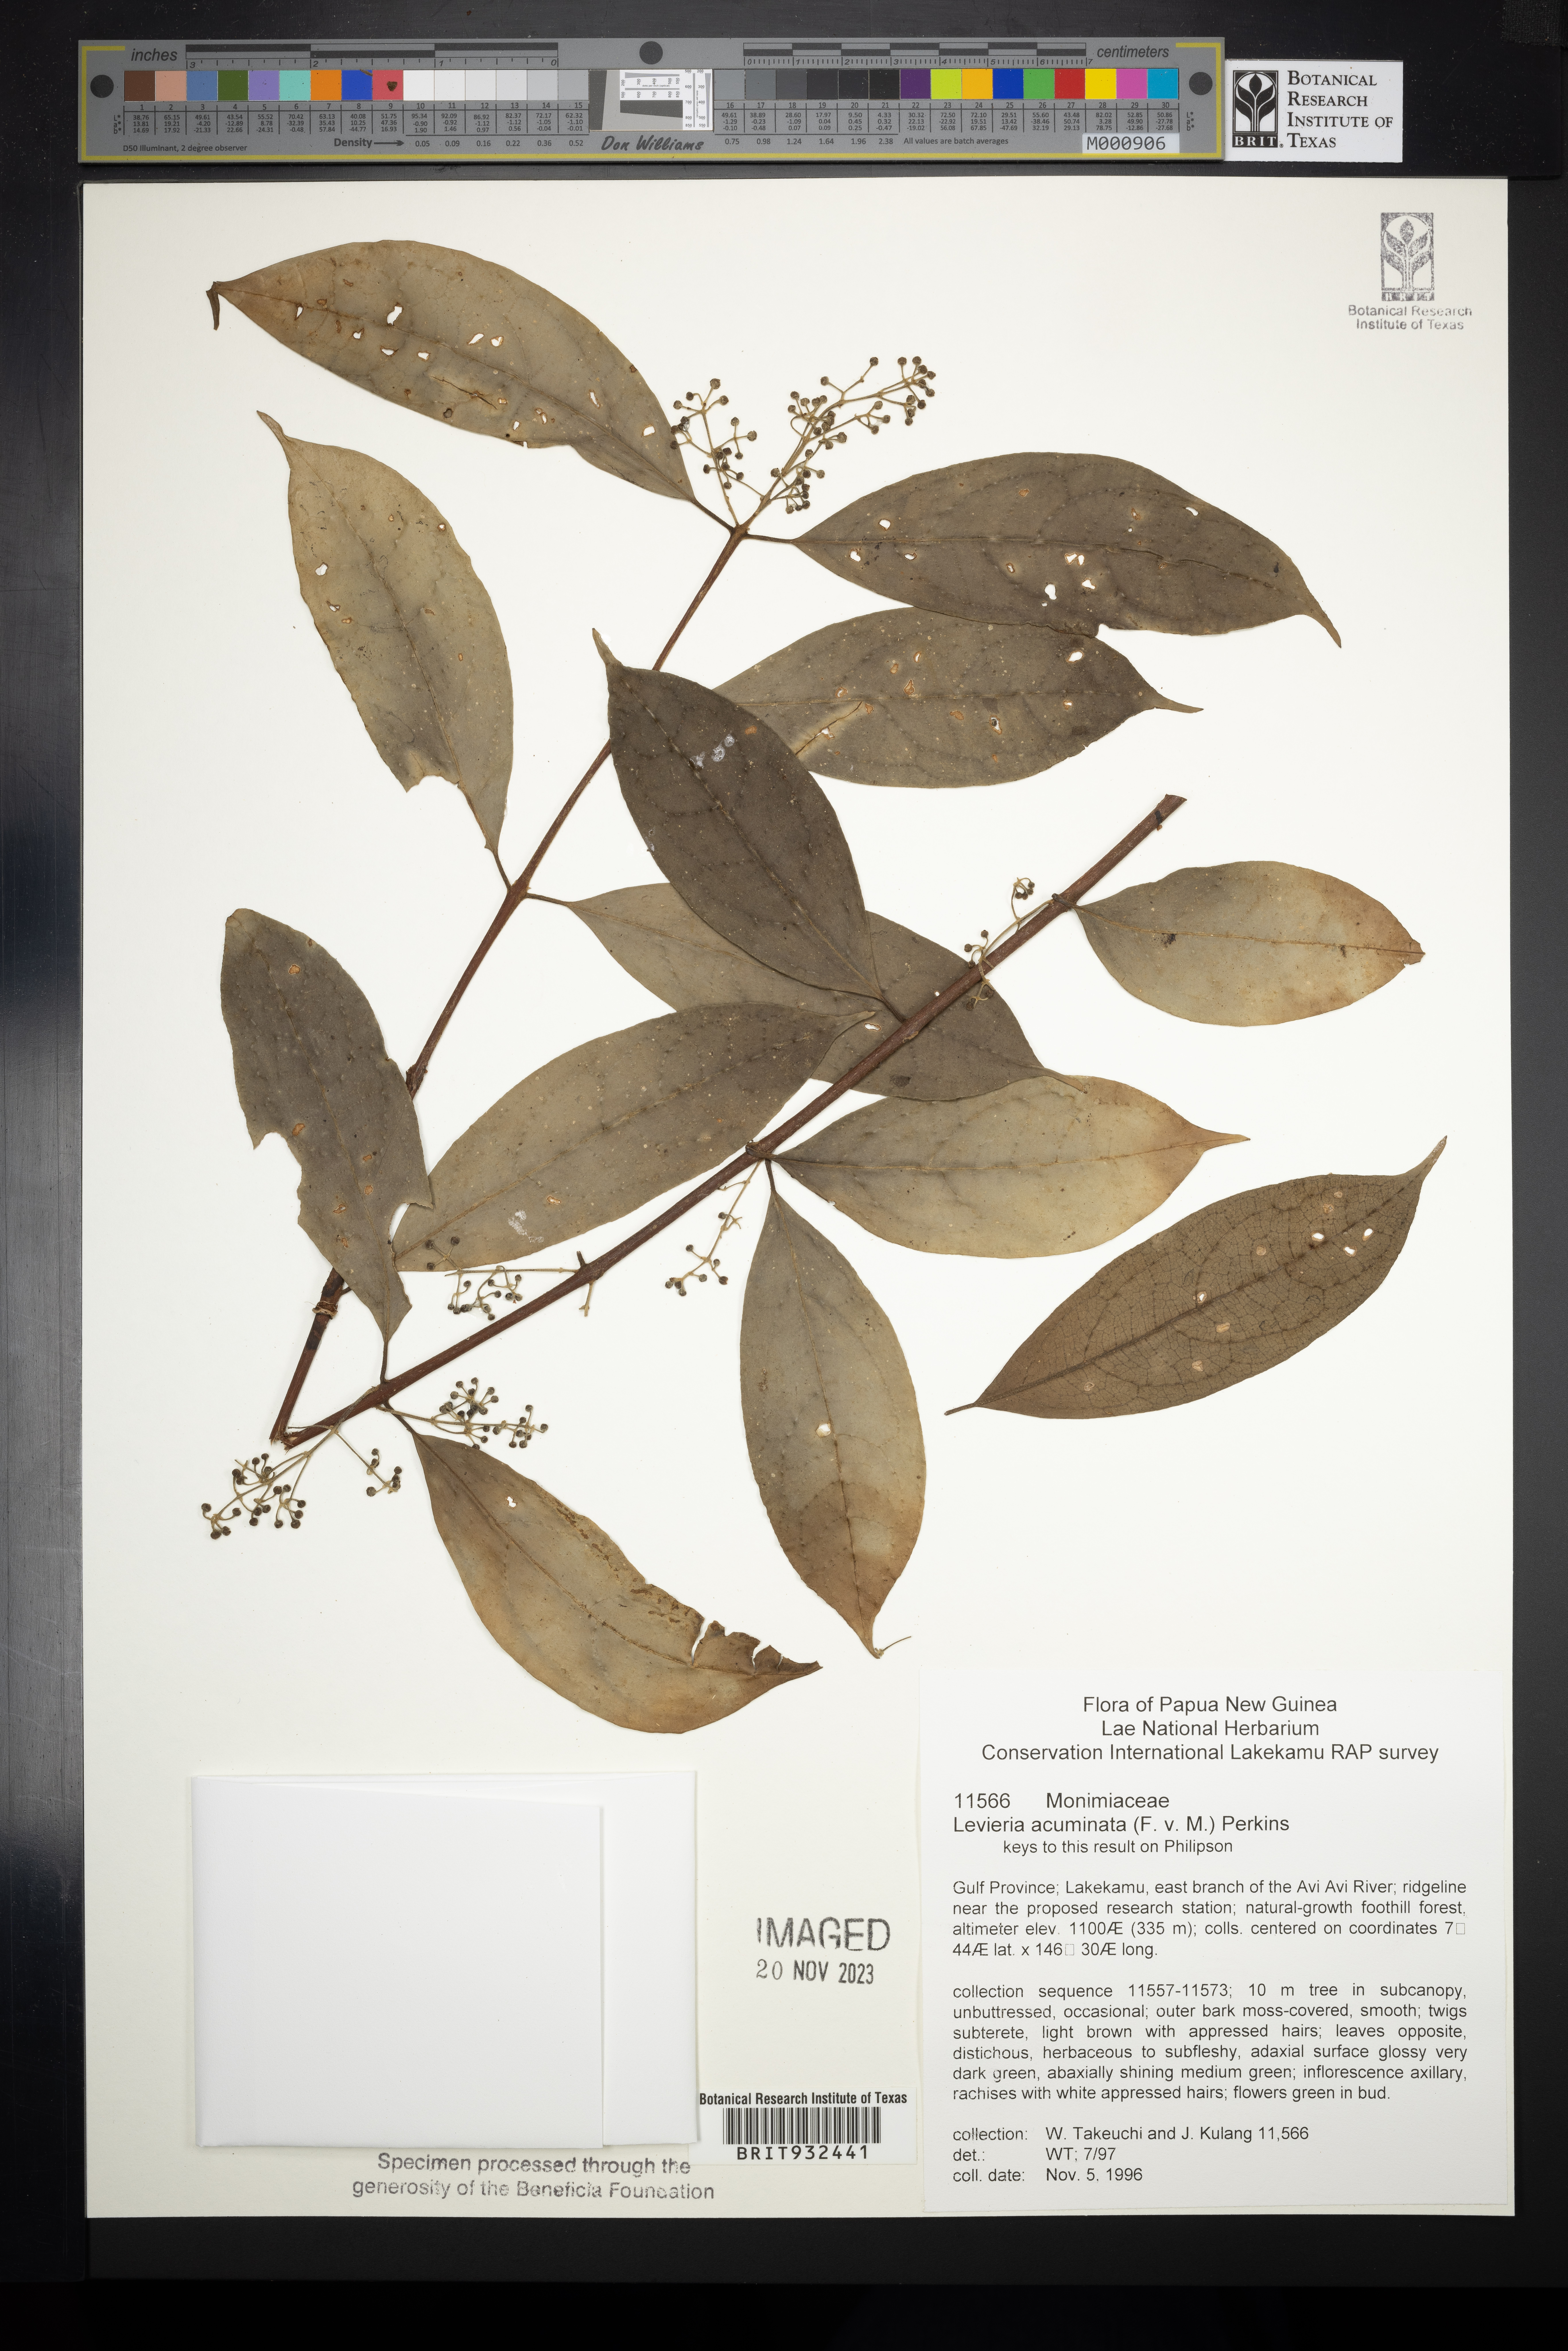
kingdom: Plantae
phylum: Tracheophyta
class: Magnoliopsida
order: Laurales
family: Monimiaceae
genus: Levieria
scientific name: Levieria
